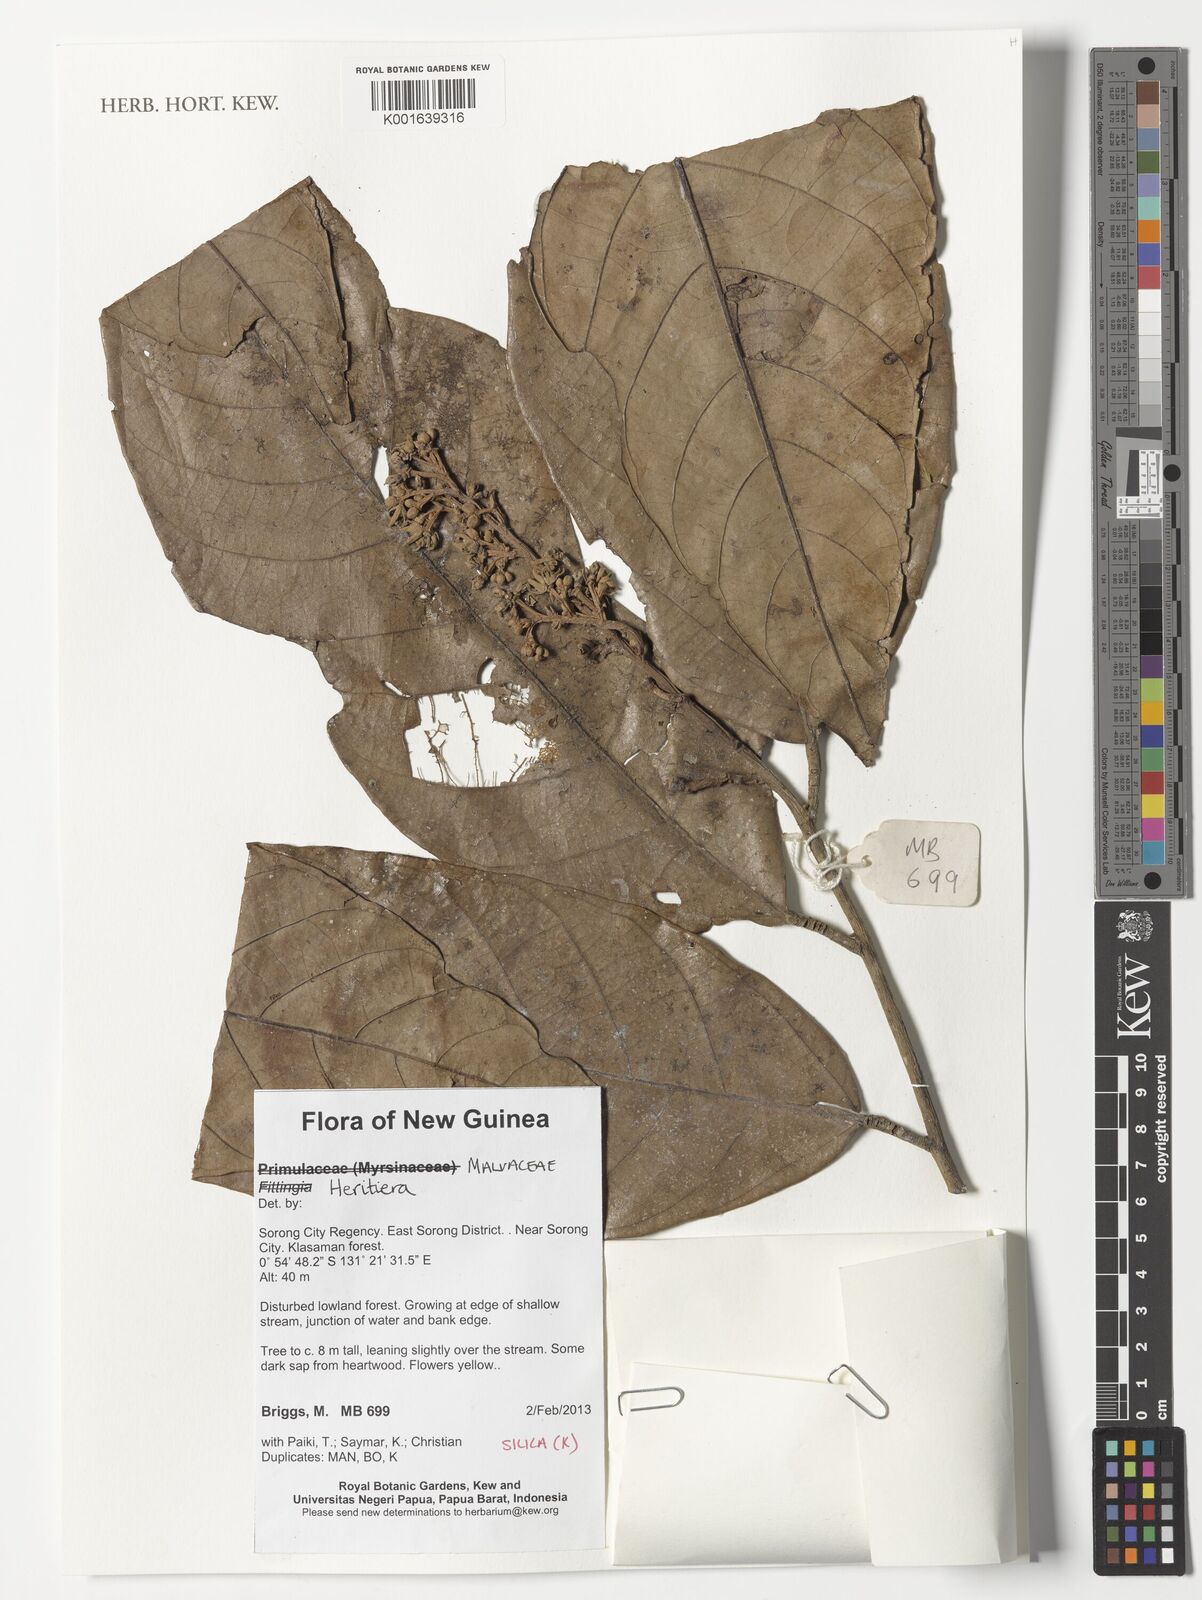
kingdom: Plantae
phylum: Tracheophyta
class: Magnoliopsida
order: Malvales
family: Malvaceae
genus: Heritiera
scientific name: Heritiera
